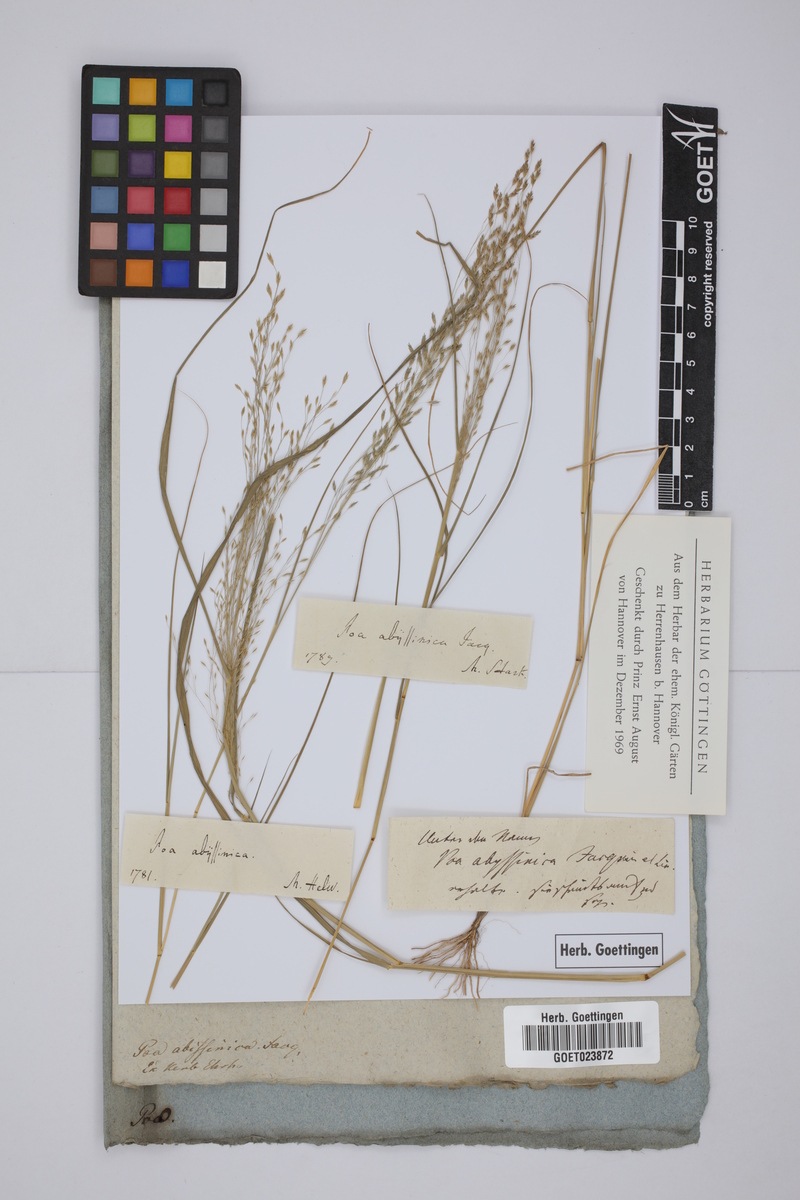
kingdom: Plantae
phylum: Tracheophyta
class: Liliopsida
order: Poales
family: Poaceae
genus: Eragrostis
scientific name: Eragrostis tef
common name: Teff
